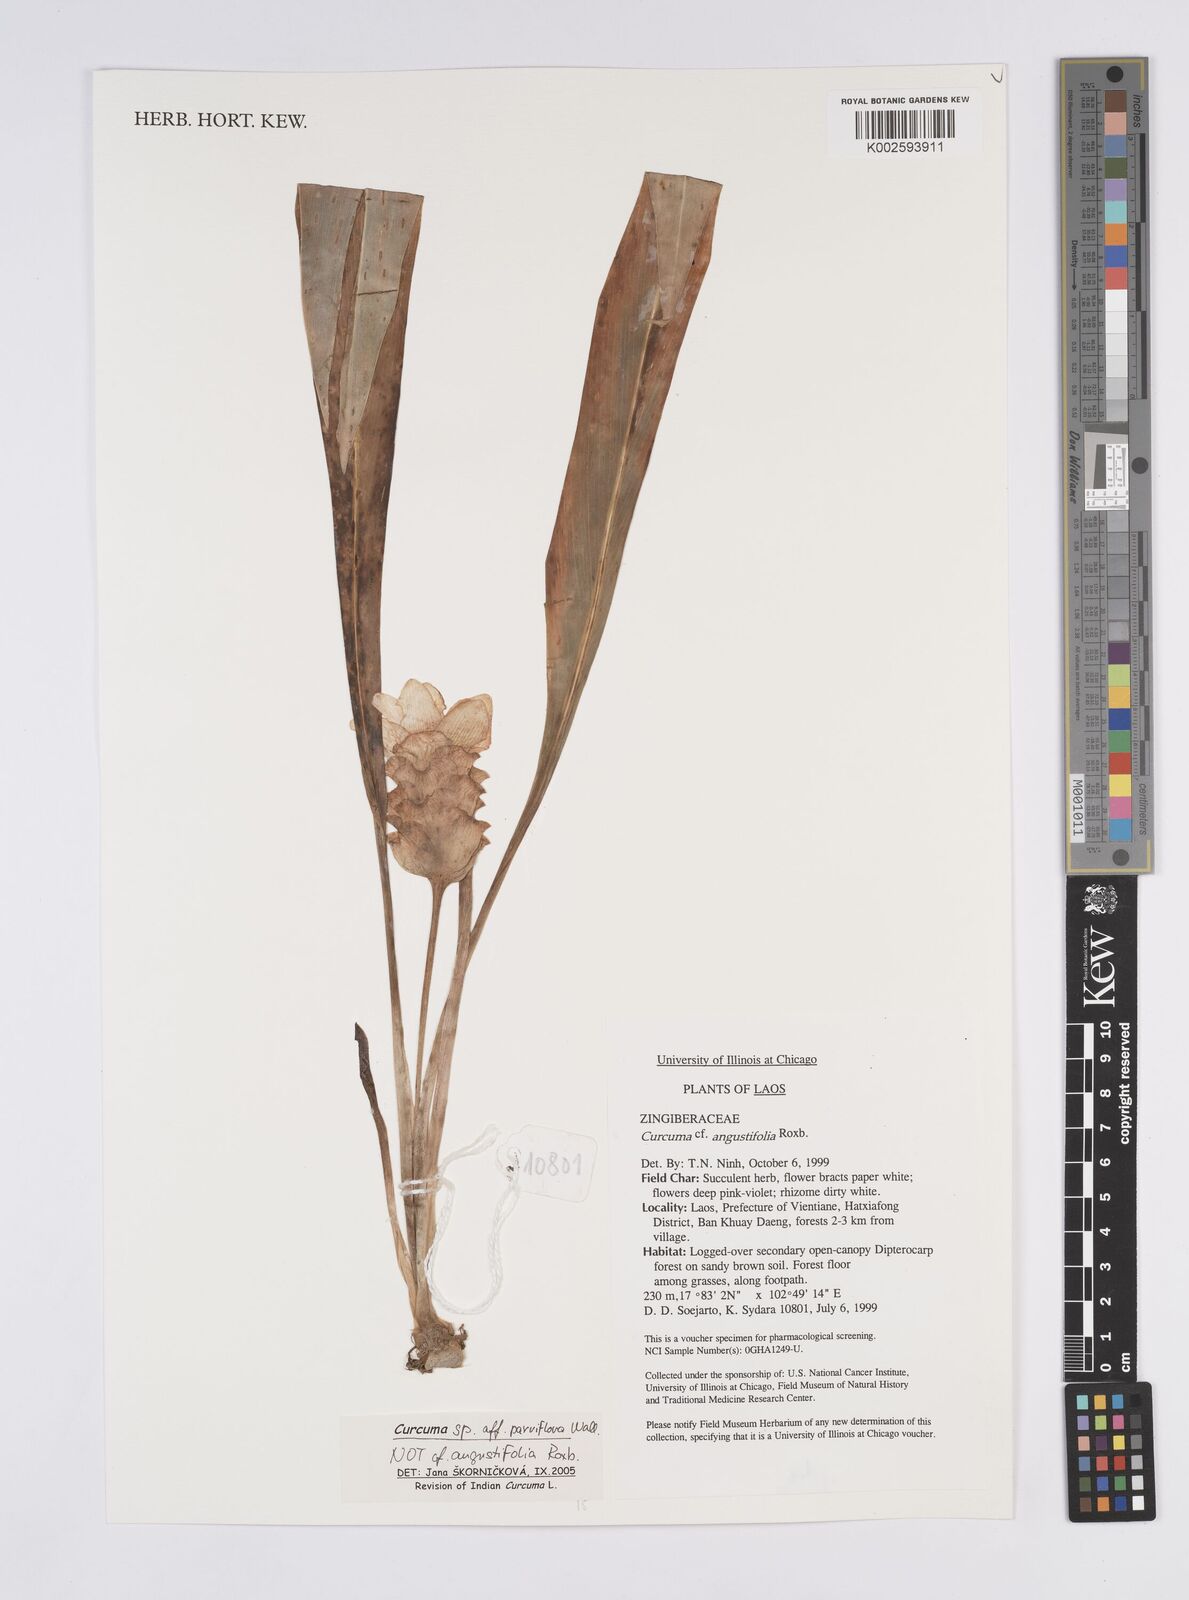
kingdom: Plantae
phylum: Tracheophyta
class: Liliopsida
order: Zingiberales
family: Zingiberaceae
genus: Curcuma
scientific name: Curcuma parviflora
